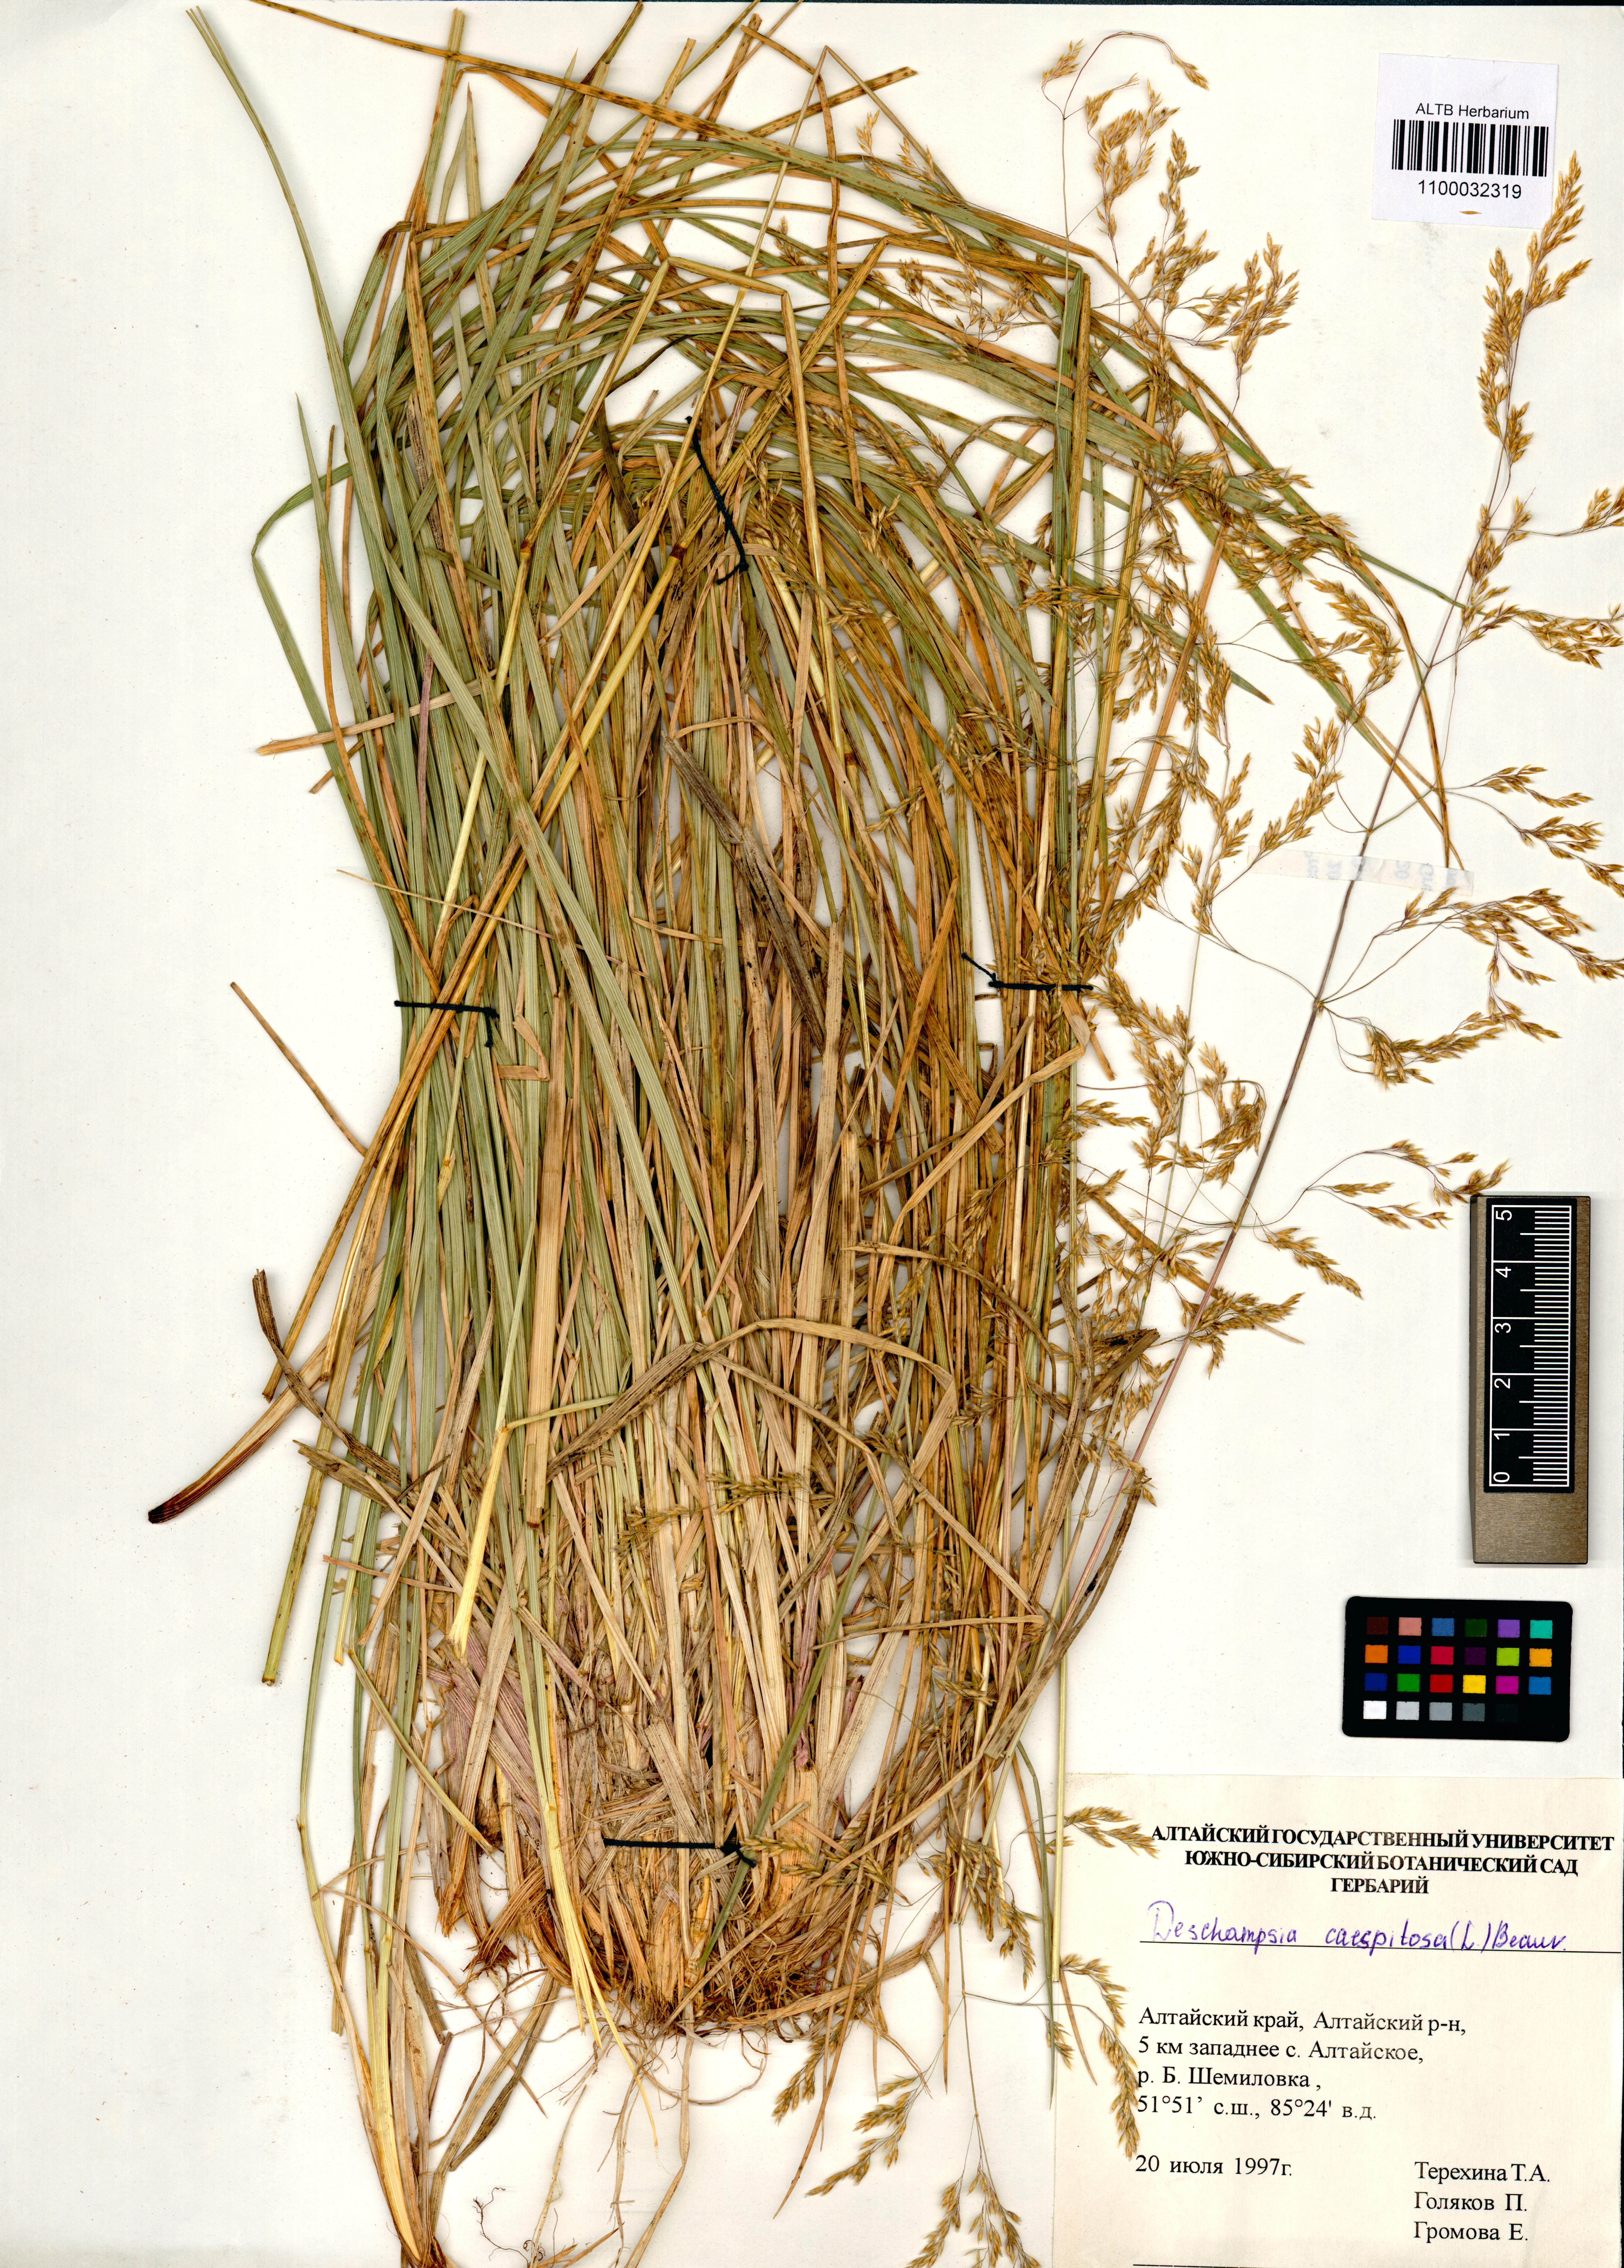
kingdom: Plantae
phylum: Tracheophyta
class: Liliopsida
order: Poales
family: Poaceae
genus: Deschampsia
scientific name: Deschampsia cespitosa
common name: Tufted hair-grass
